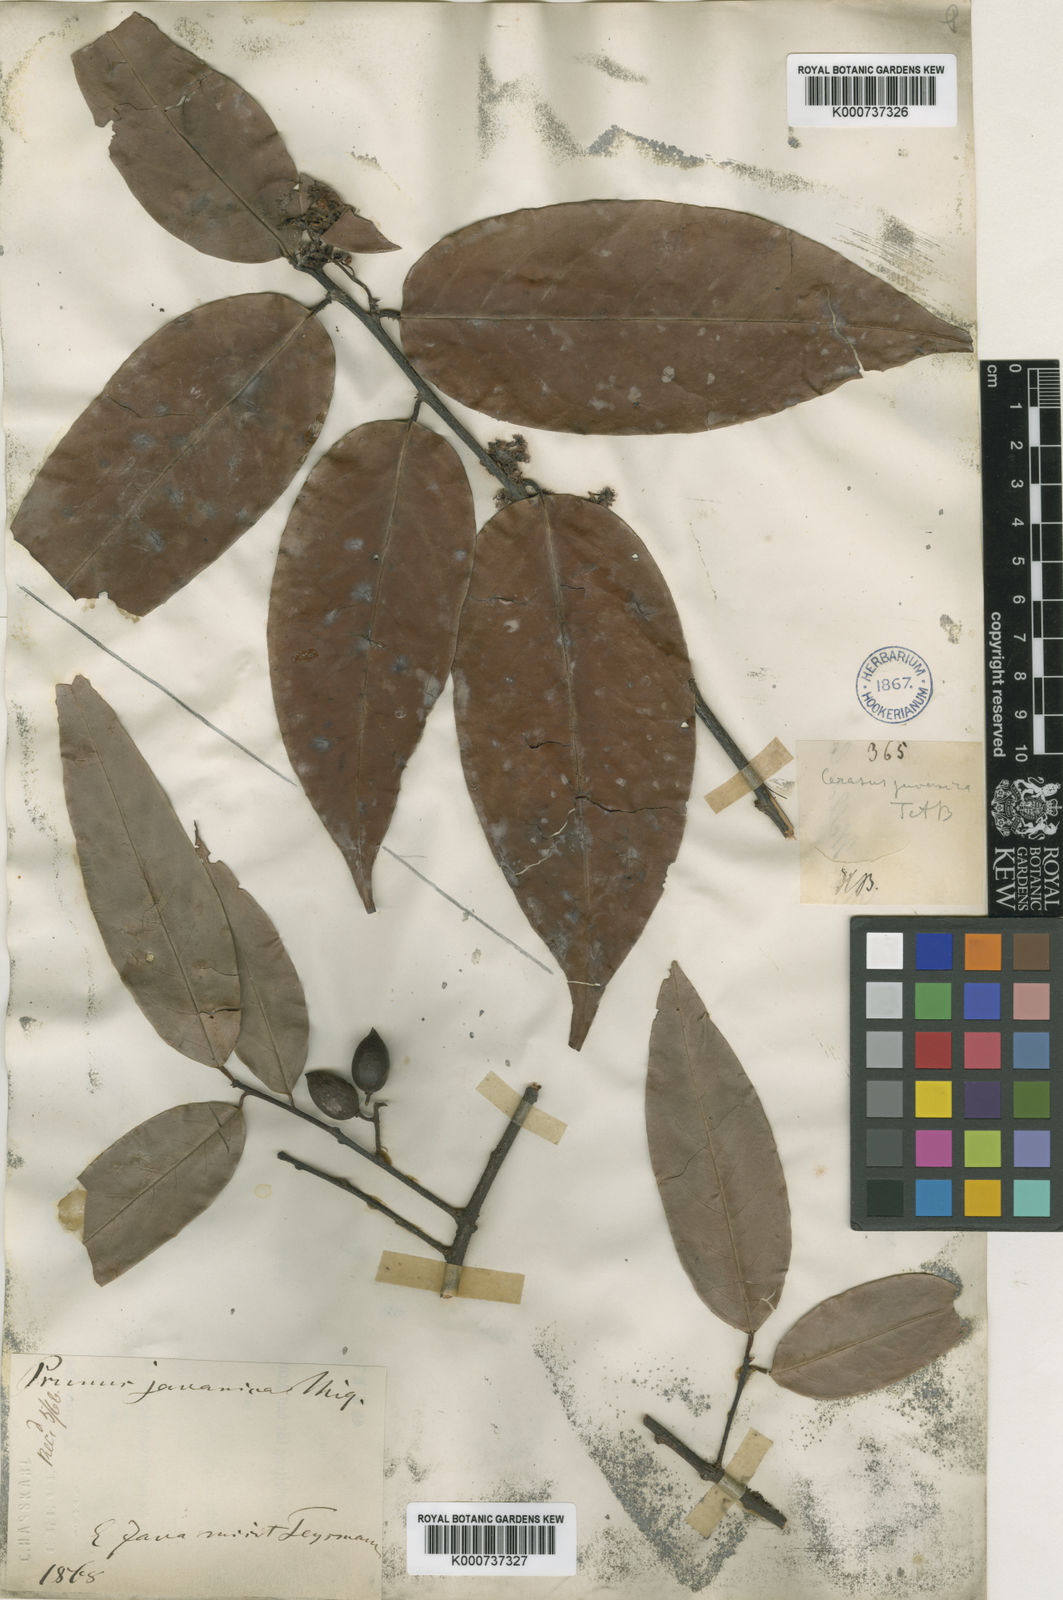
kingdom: Plantae
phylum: Tracheophyta
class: Magnoliopsida
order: Rosales
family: Rosaceae
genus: Prunus
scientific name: Prunus javanica
